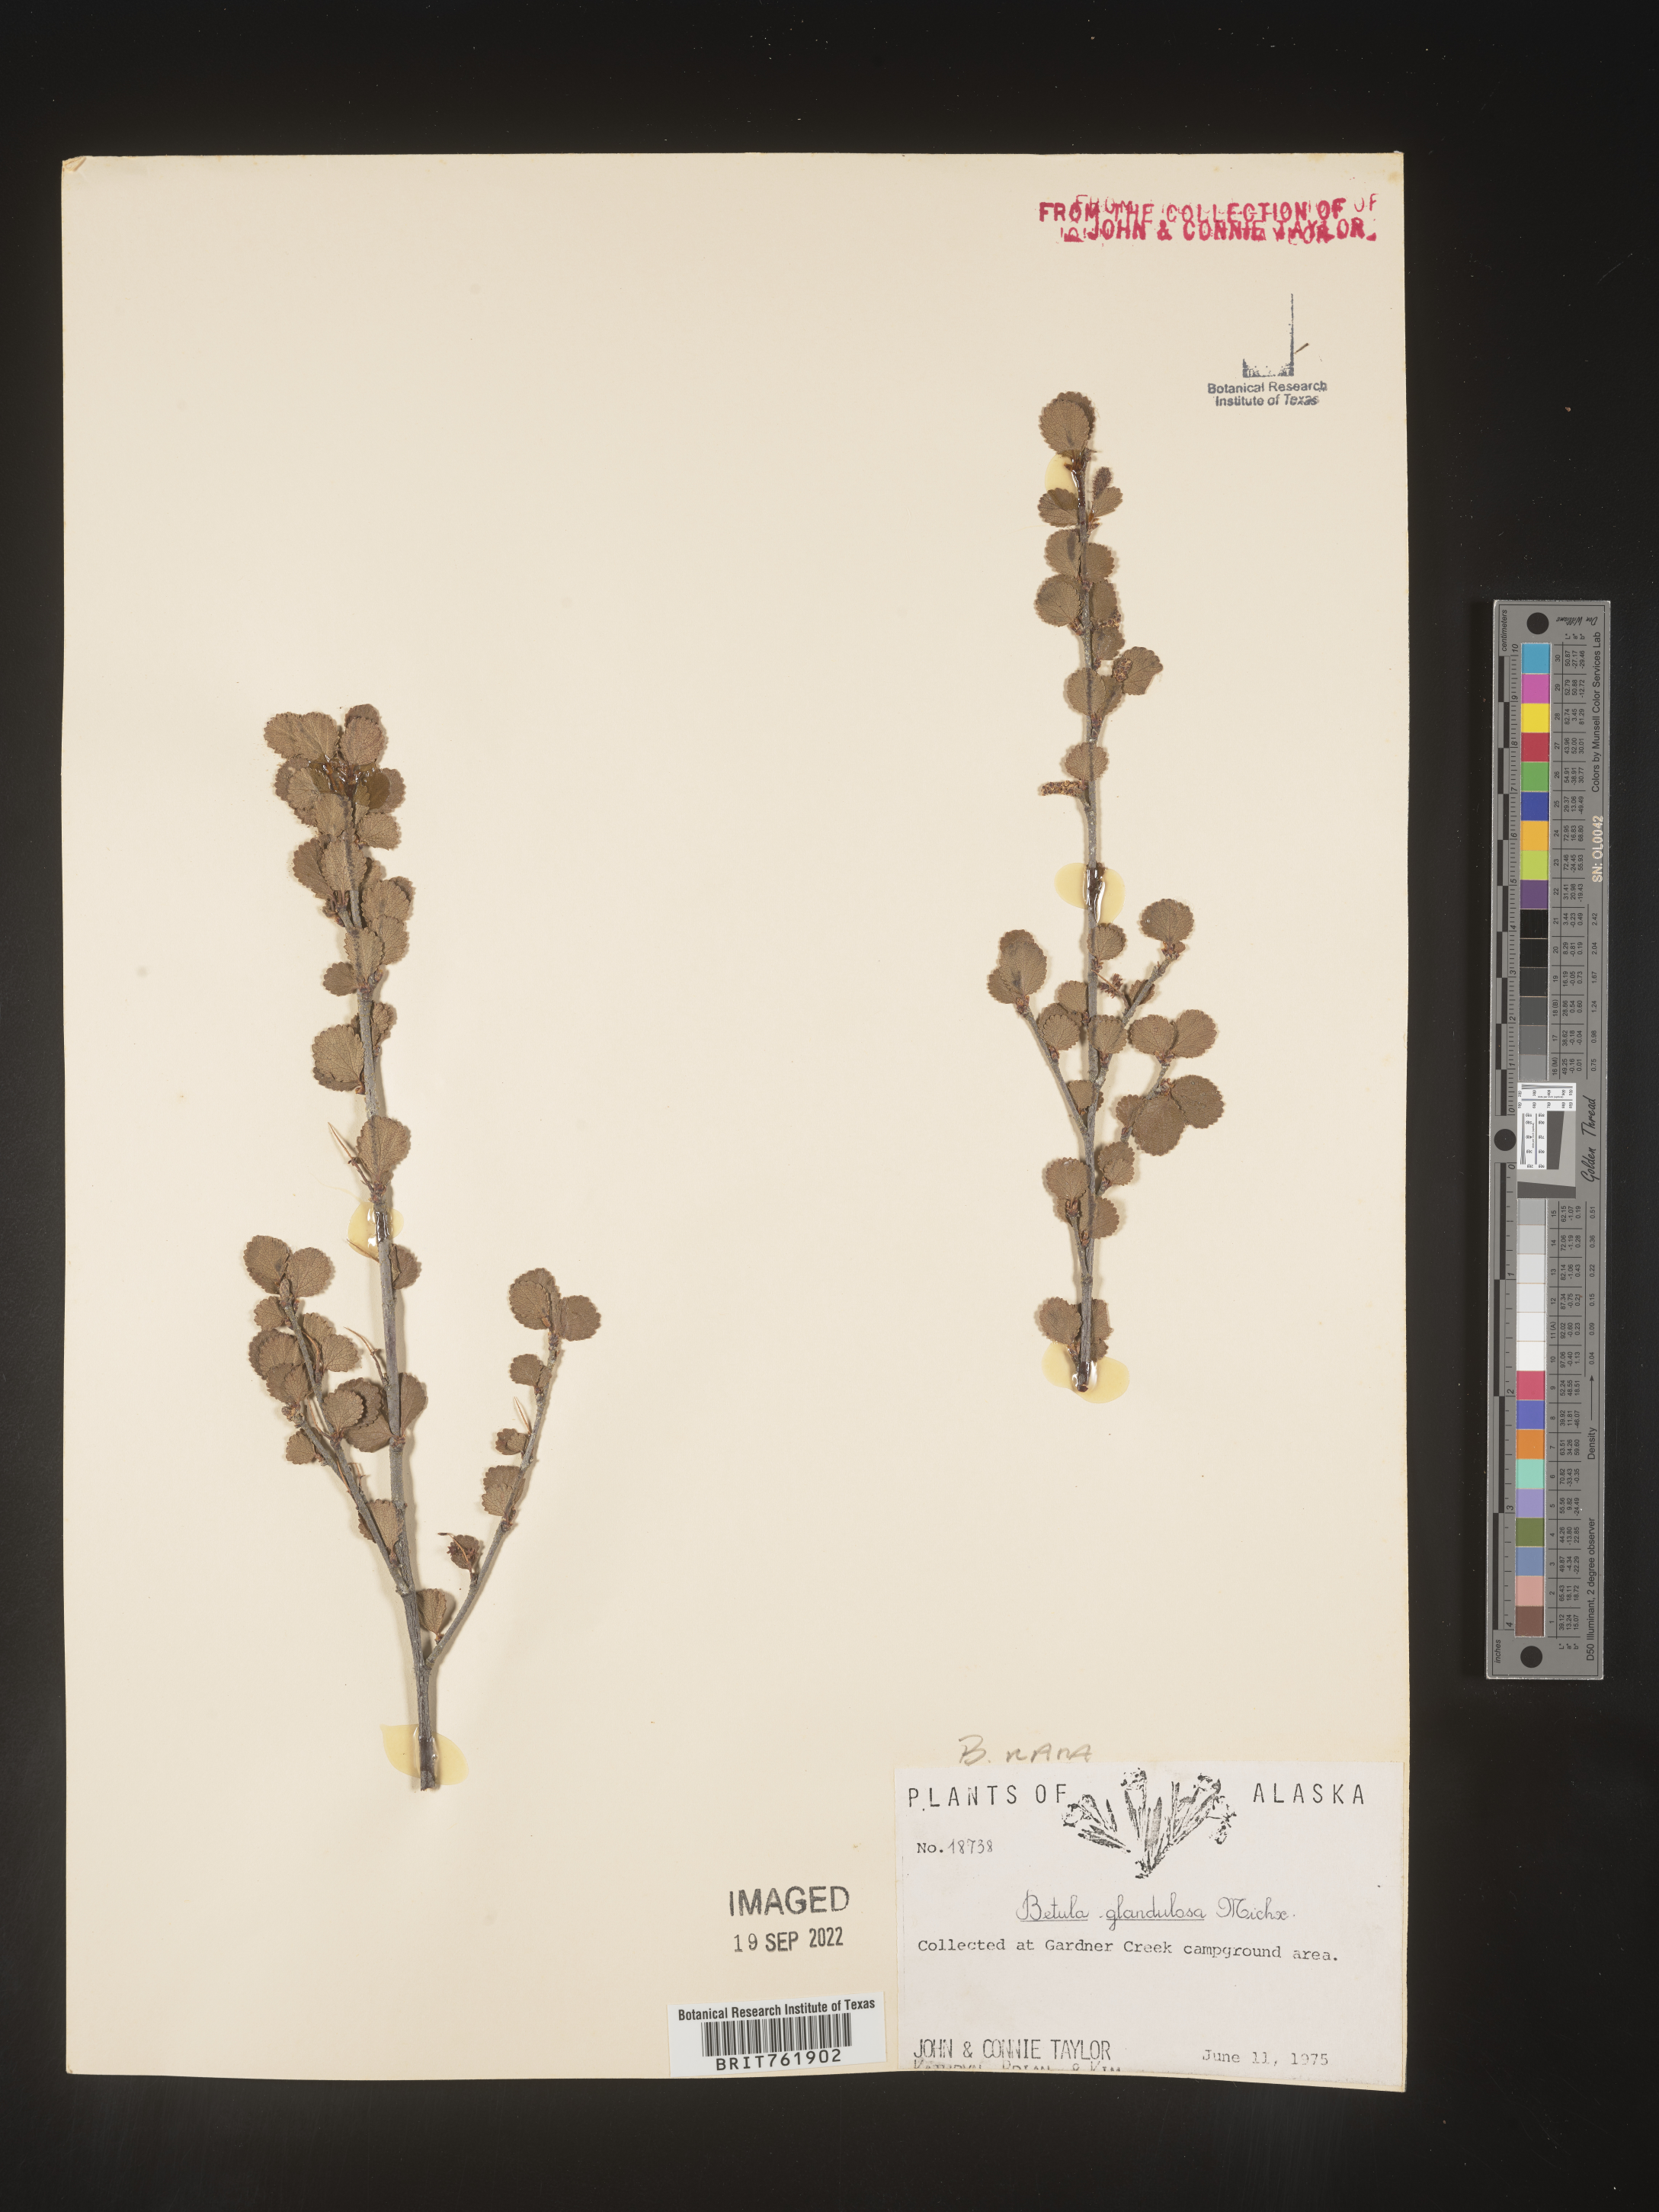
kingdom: Plantae
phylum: Tracheophyta
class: Magnoliopsida
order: Fagales
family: Betulaceae
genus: Betula
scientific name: Betula nana
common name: Arctic dwarf birch
